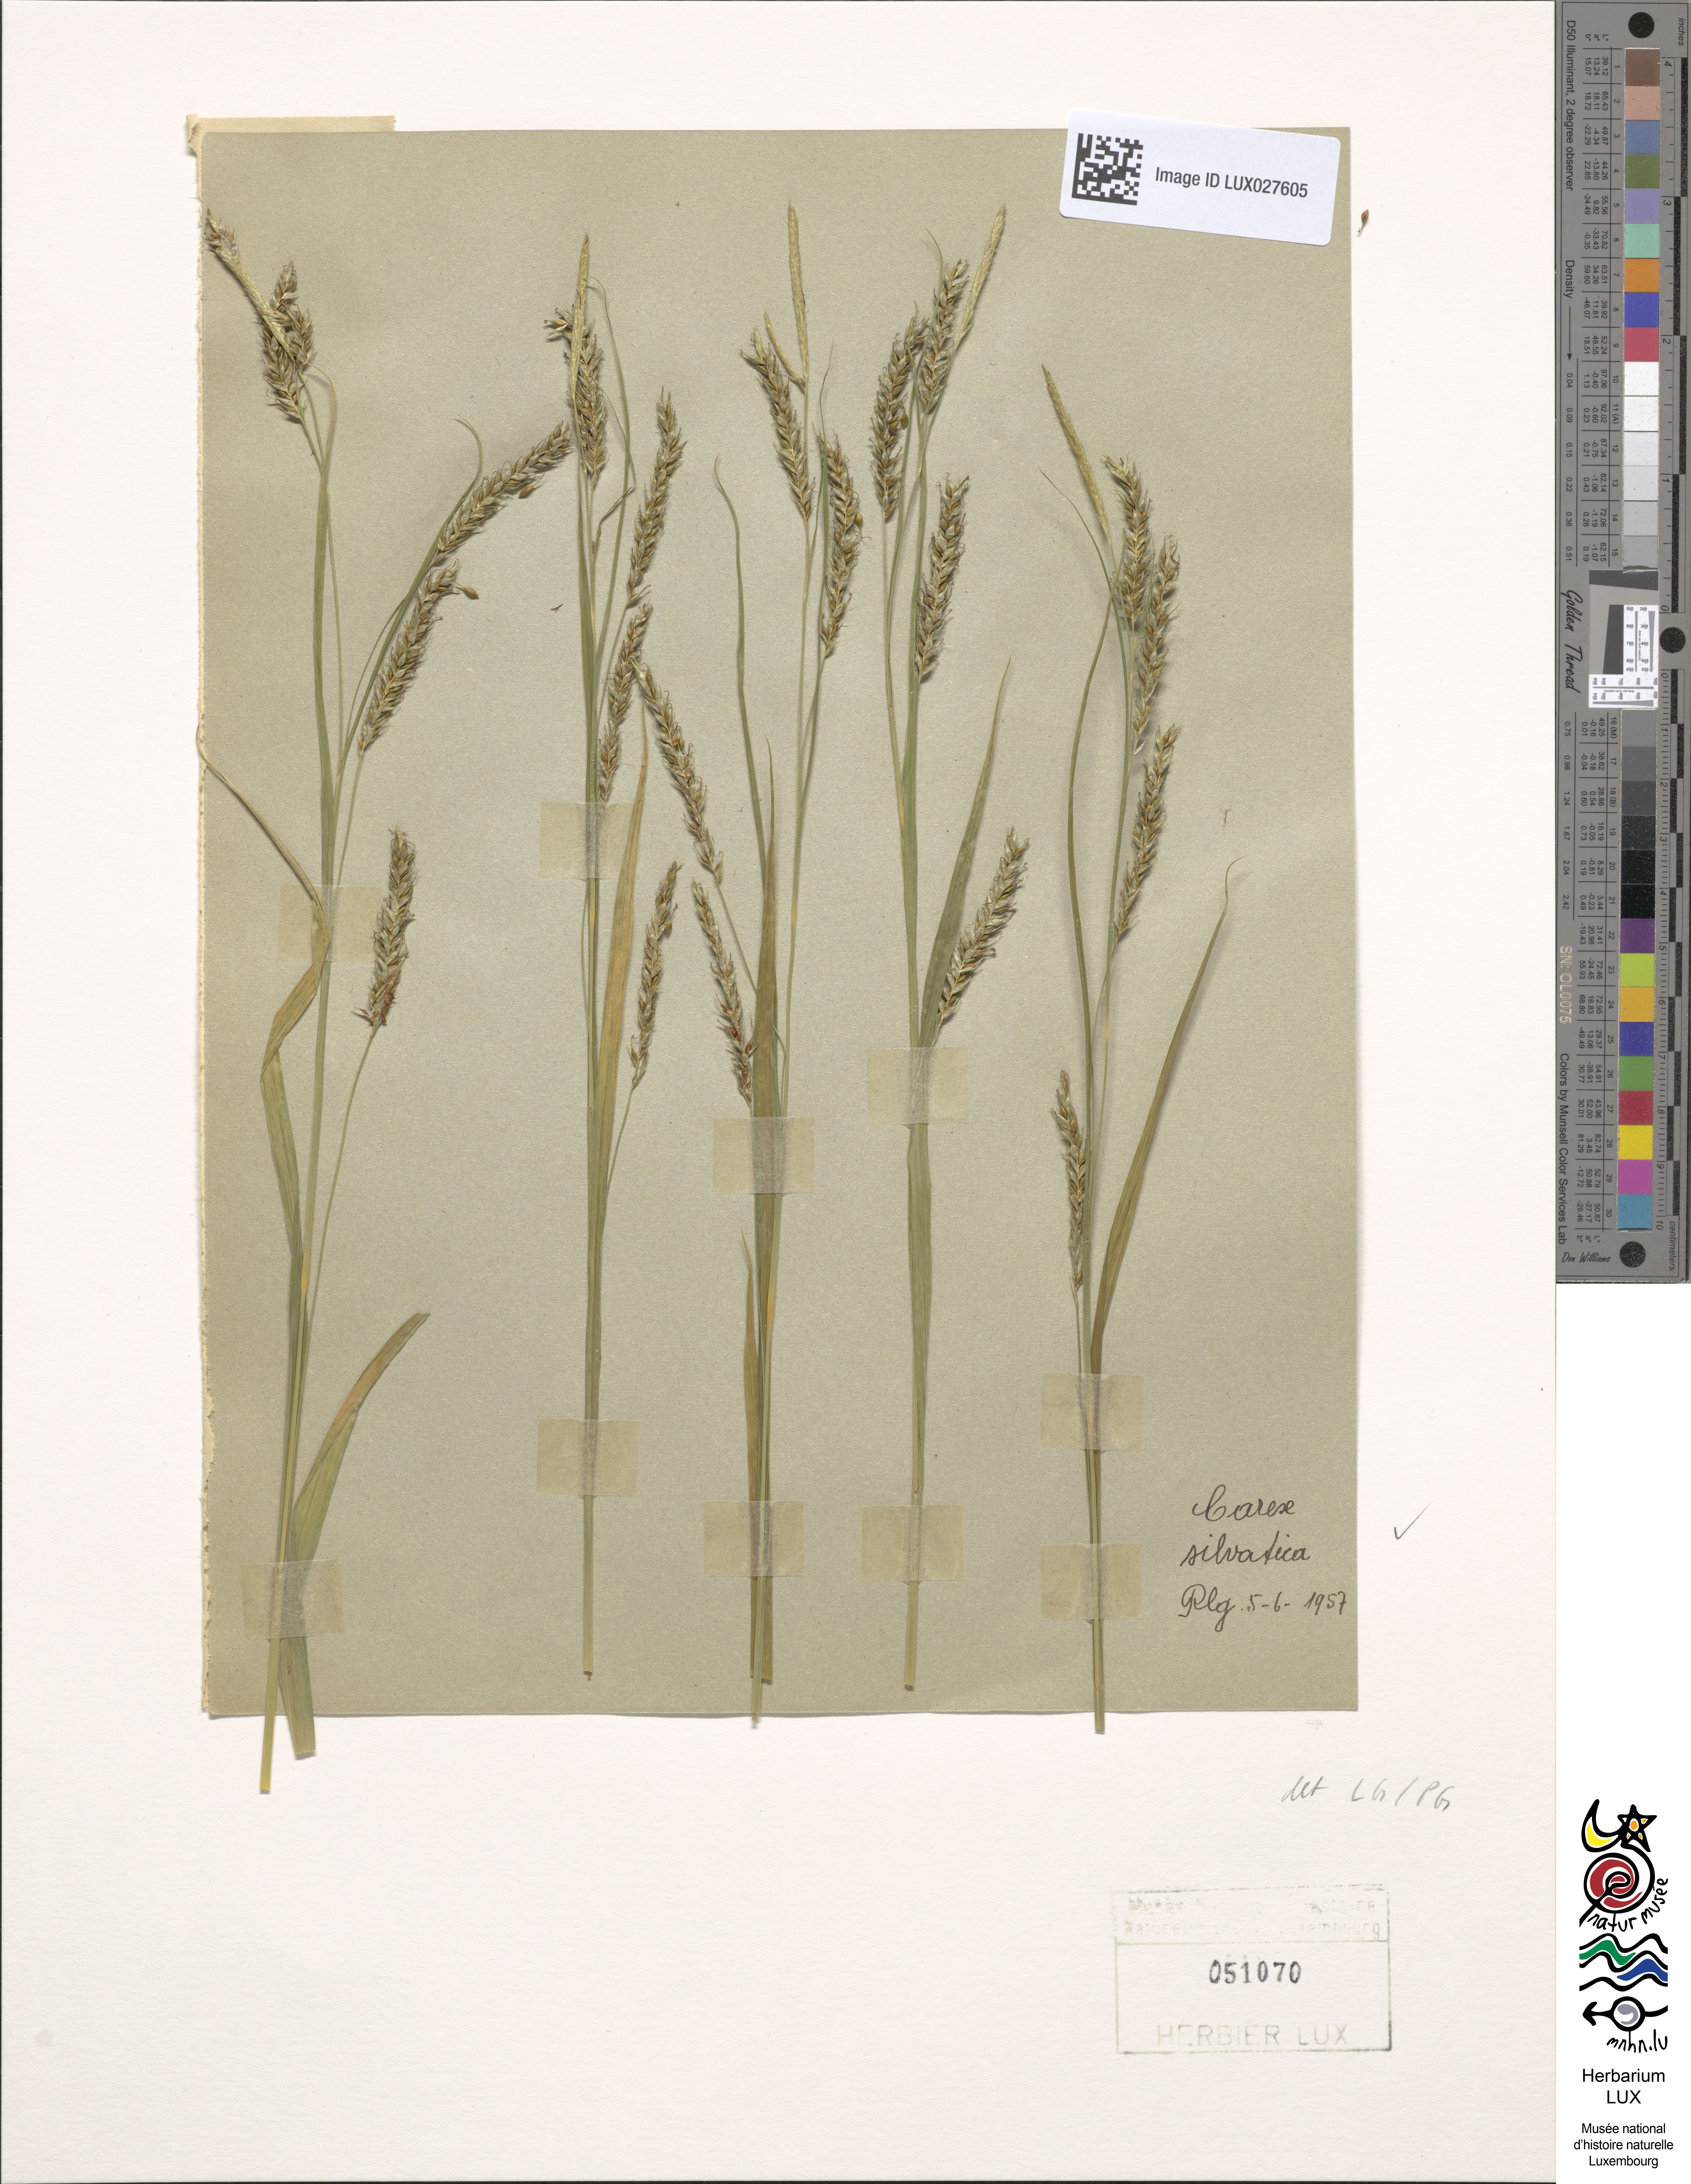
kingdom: Plantae
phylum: Tracheophyta
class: Liliopsida
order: Poales
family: Cyperaceae
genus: Carex
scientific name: Carex sylvatica
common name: Wood-sedge
